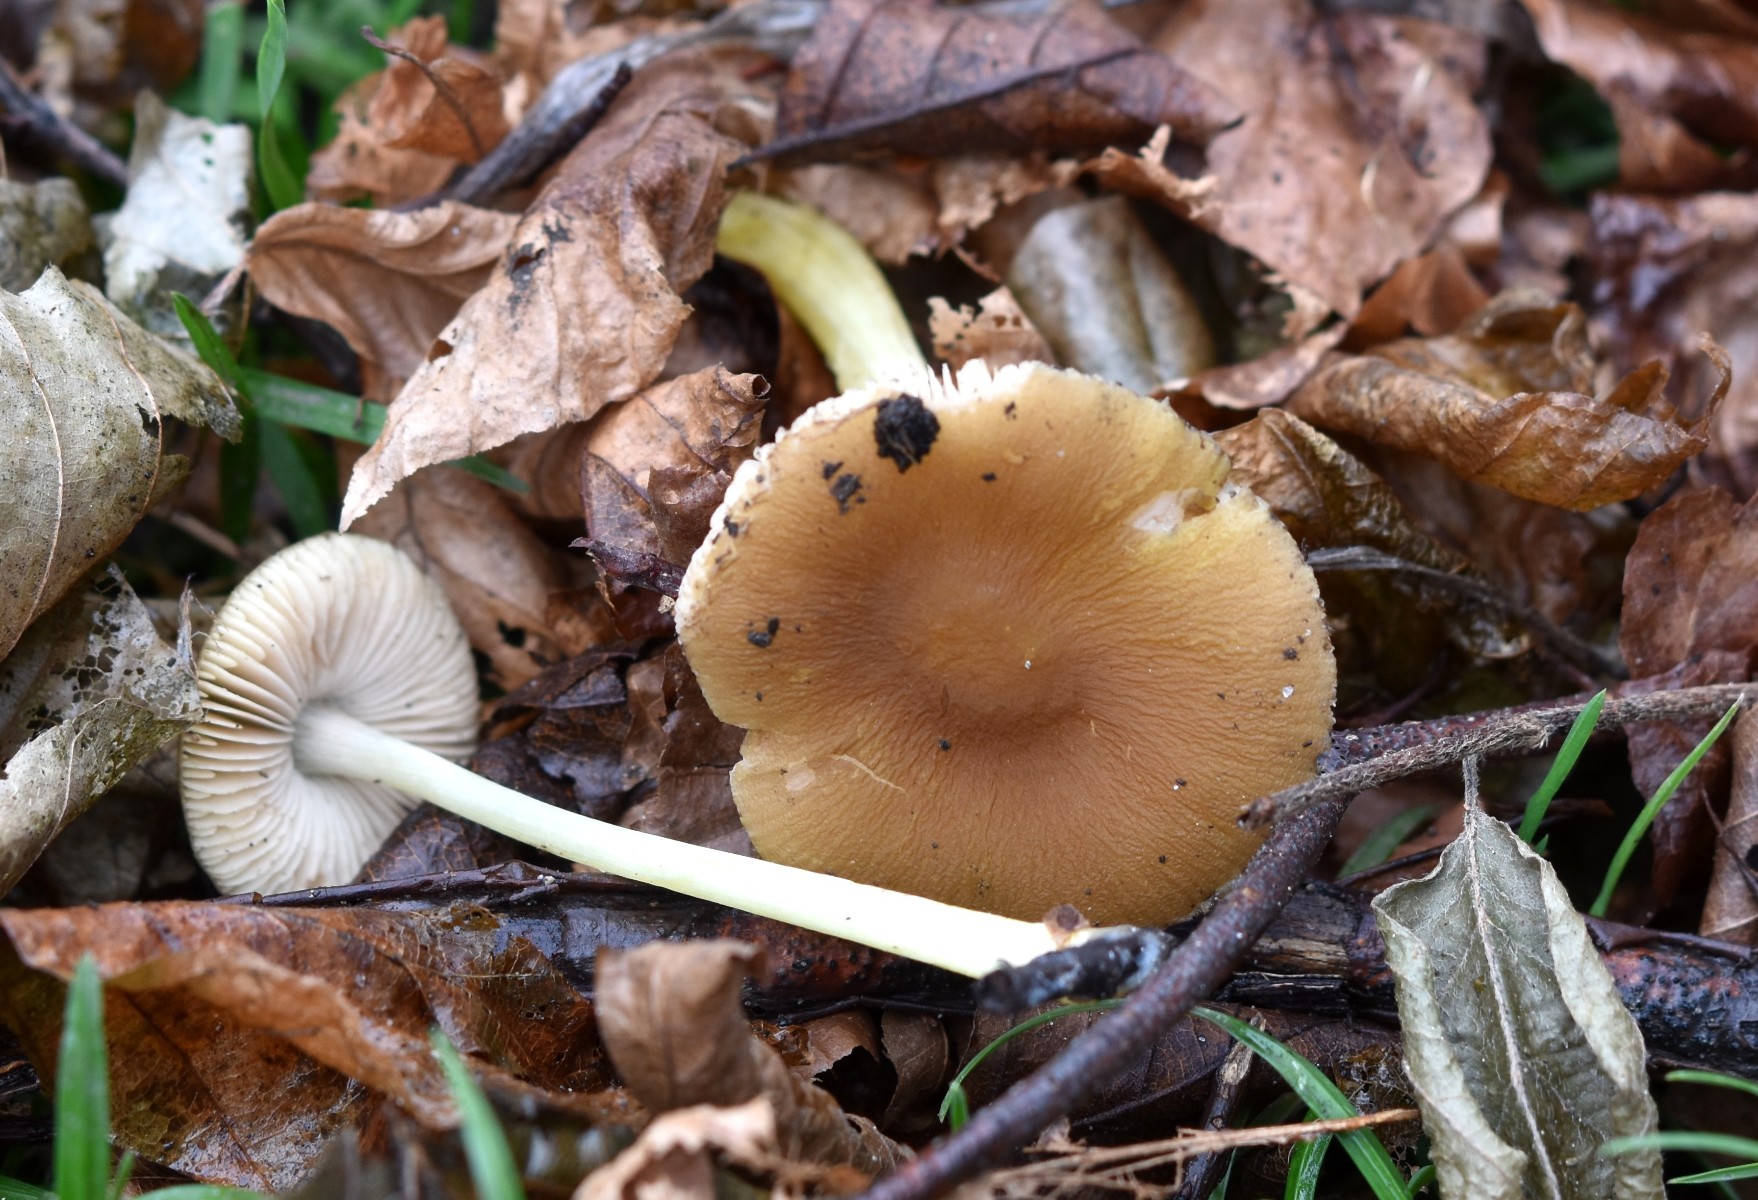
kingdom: Fungi
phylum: Basidiomycota
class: Agaricomycetes
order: Agaricales
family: Pluteaceae
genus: Pluteus
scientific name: Pluteus romellii
